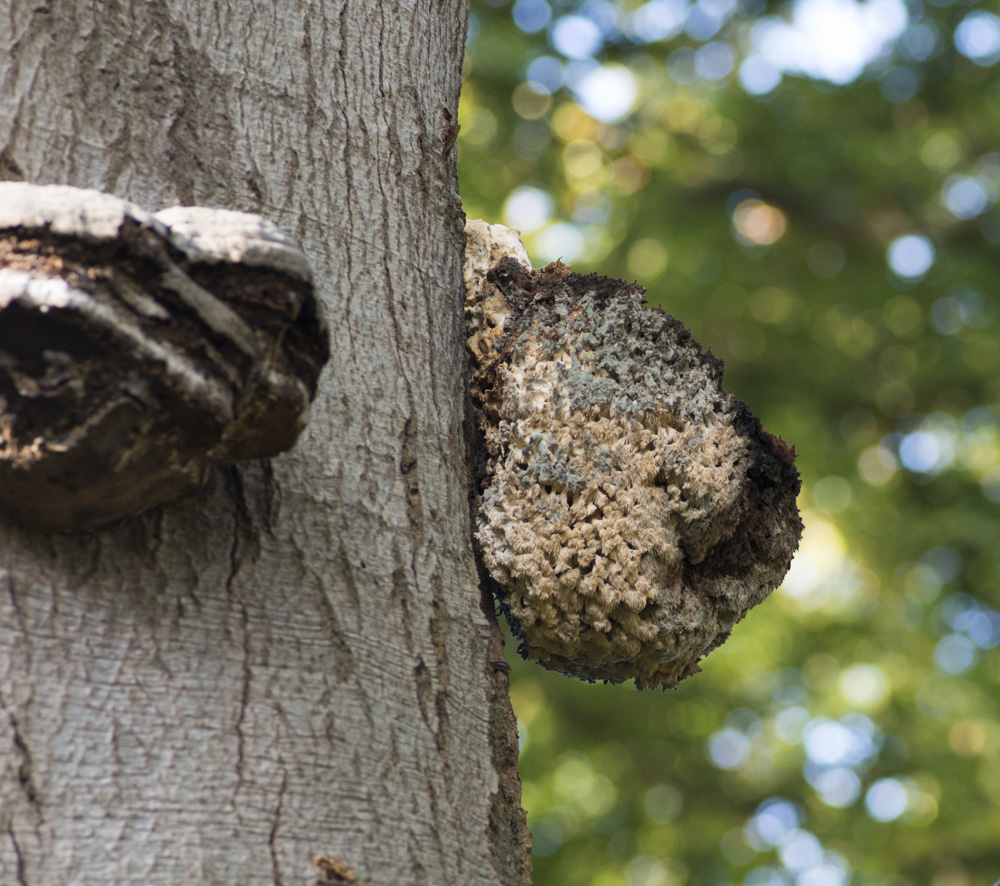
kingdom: Fungi
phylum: Basidiomycota
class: Agaricomycetes
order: Russulales
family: Hericiaceae
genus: Hericium
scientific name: Hericium coralloides
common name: koralpigsvamp
